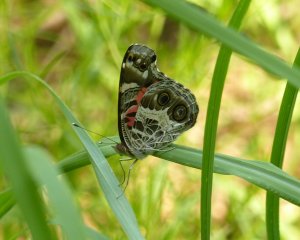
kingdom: Animalia
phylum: Arthropoda
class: Insecta
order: Lepidoptera
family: Nymphalidae
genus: Vanessa
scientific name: Vanessa virginiensis
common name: American Lady
